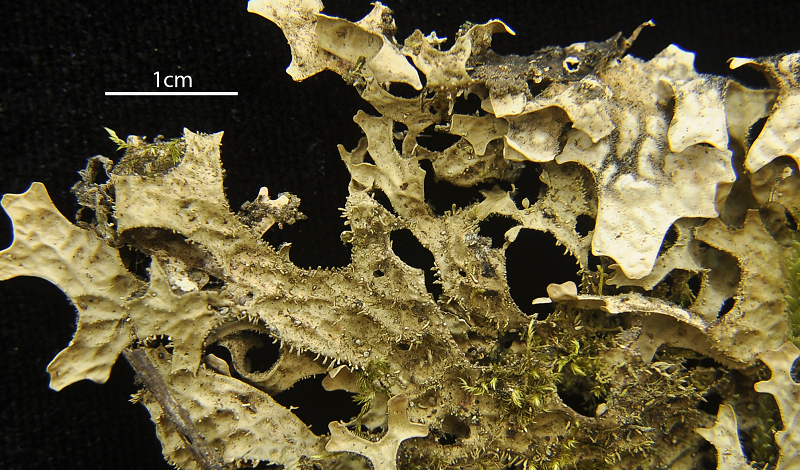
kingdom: Fungi
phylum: Ascomycota
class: Lecanoromycetes
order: Peltigerales
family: Lobariaceae
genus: Lobaria
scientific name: Lobaria meridionalis
